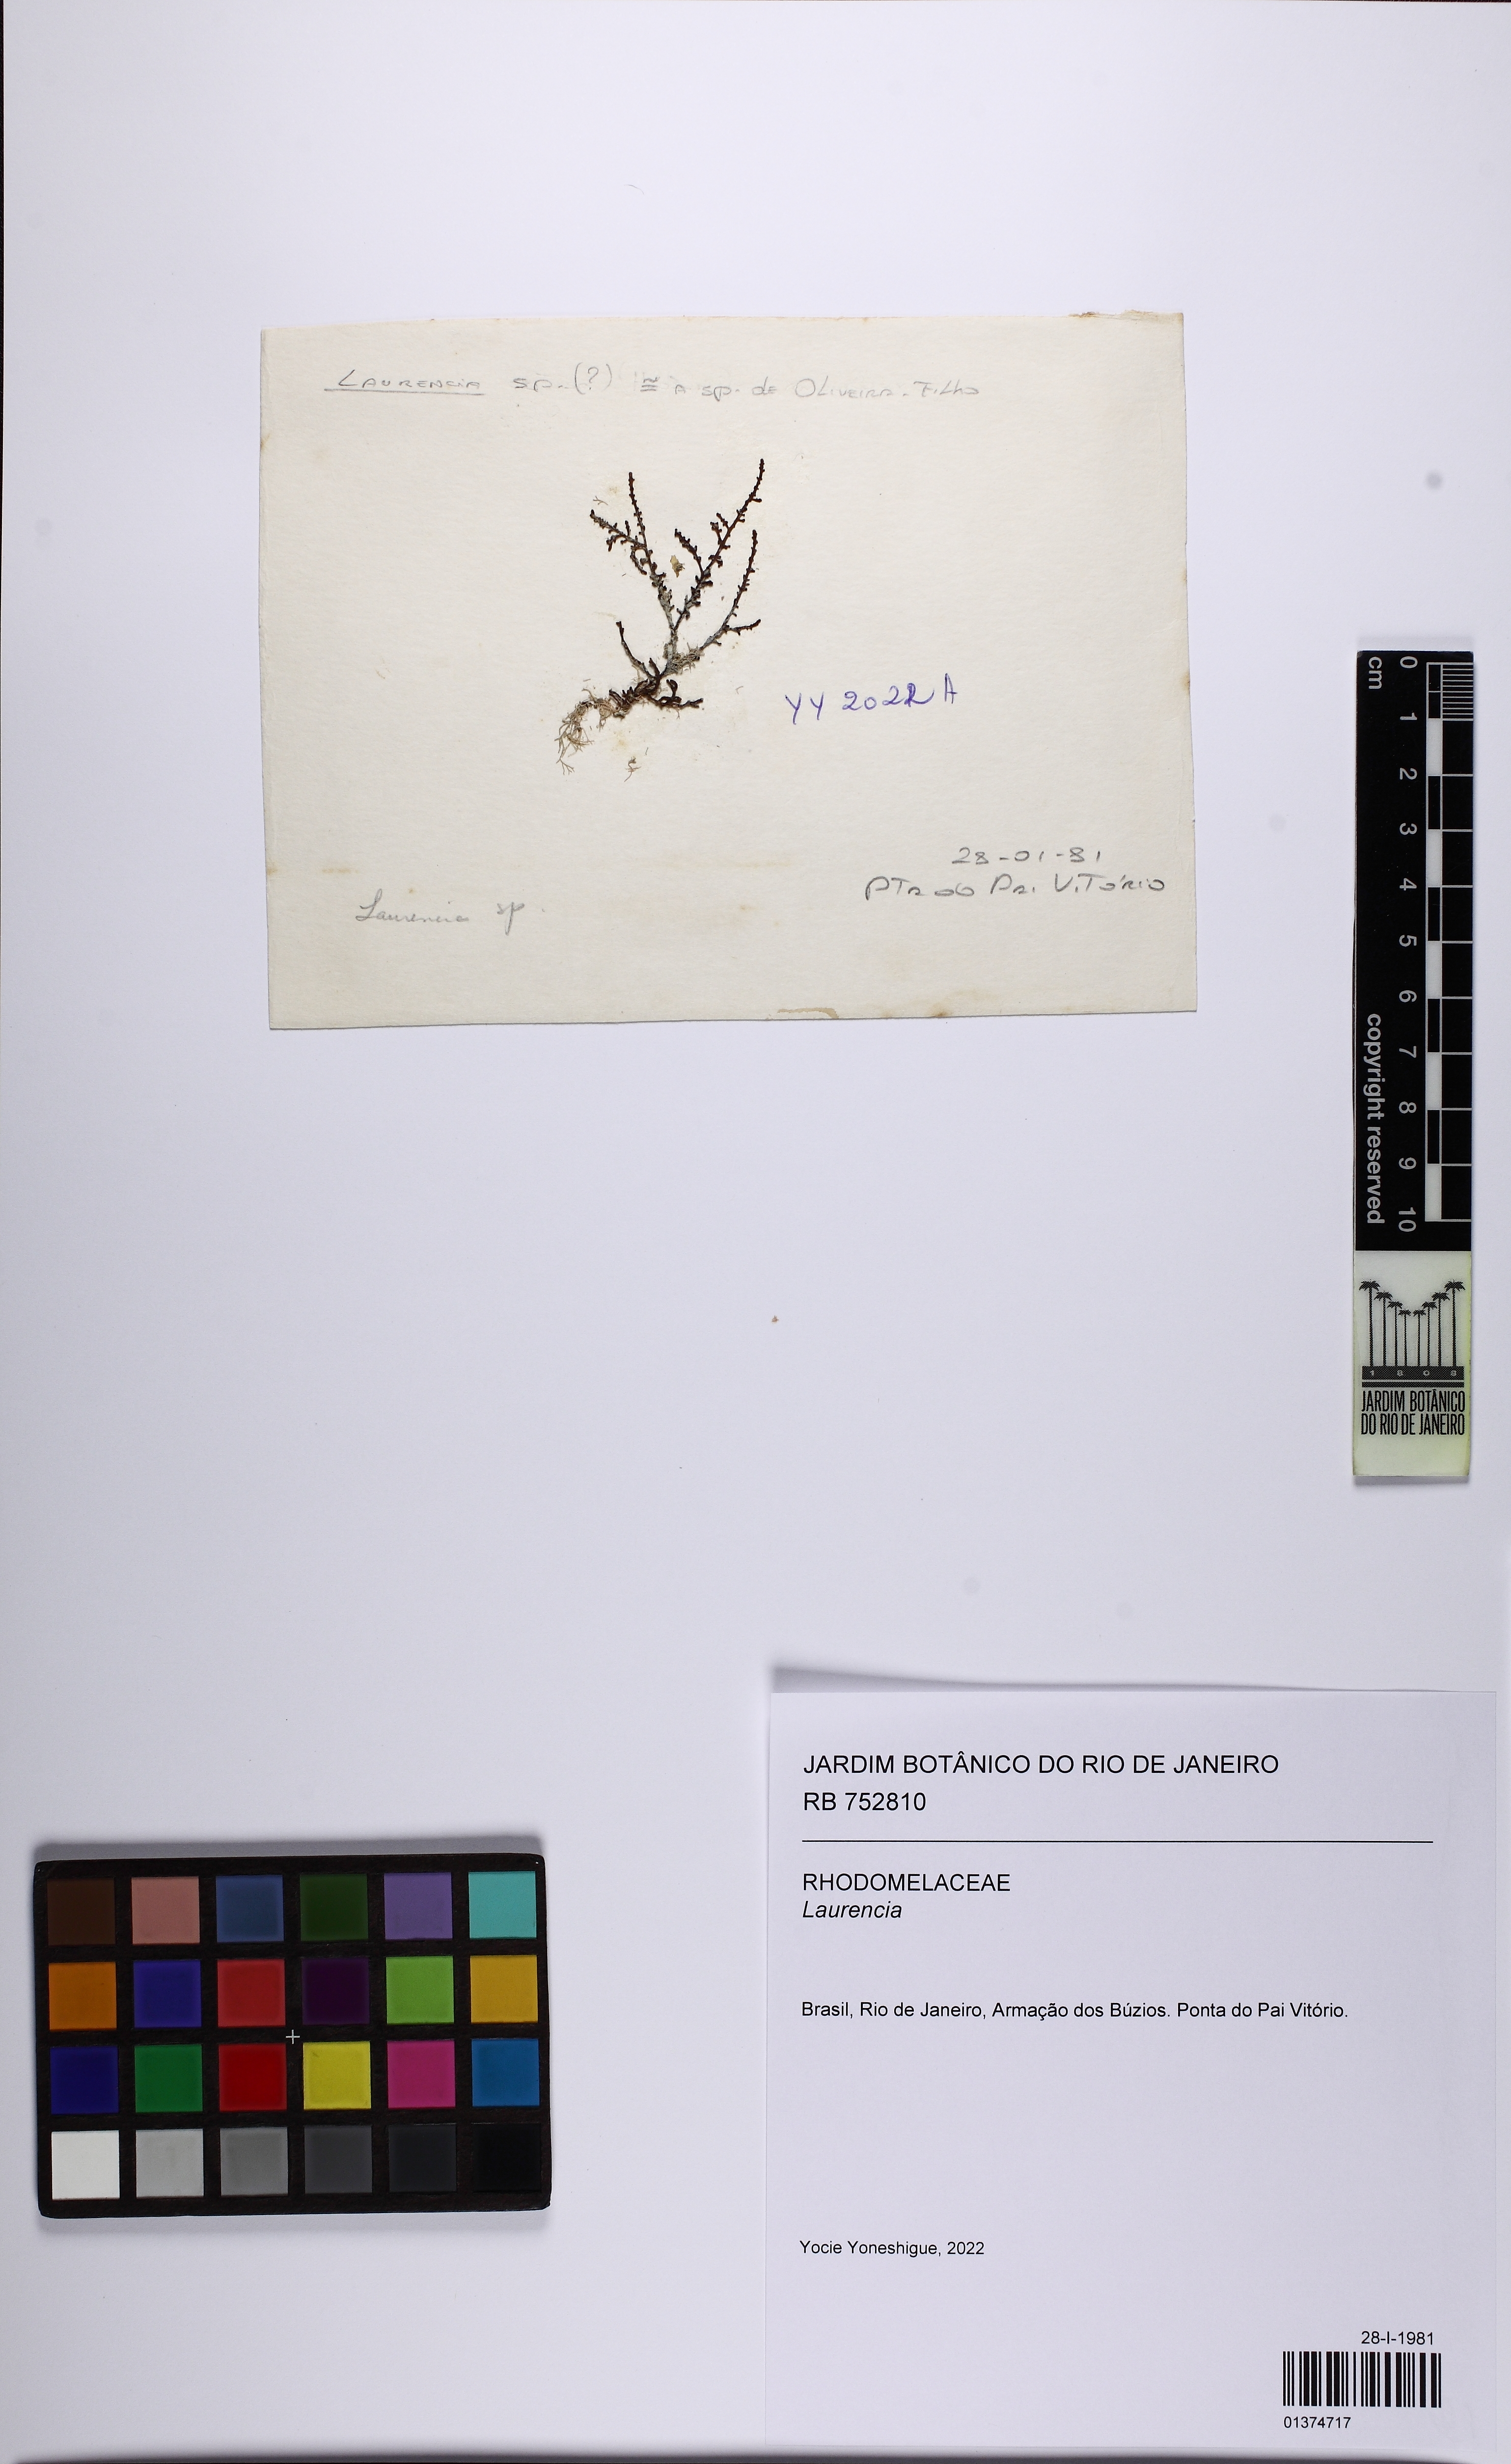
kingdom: Plantae
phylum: Rhodophyta
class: Florideophyceae
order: Ceramiales
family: Rhodomelaceae
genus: Laurencia
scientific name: Laurencia
